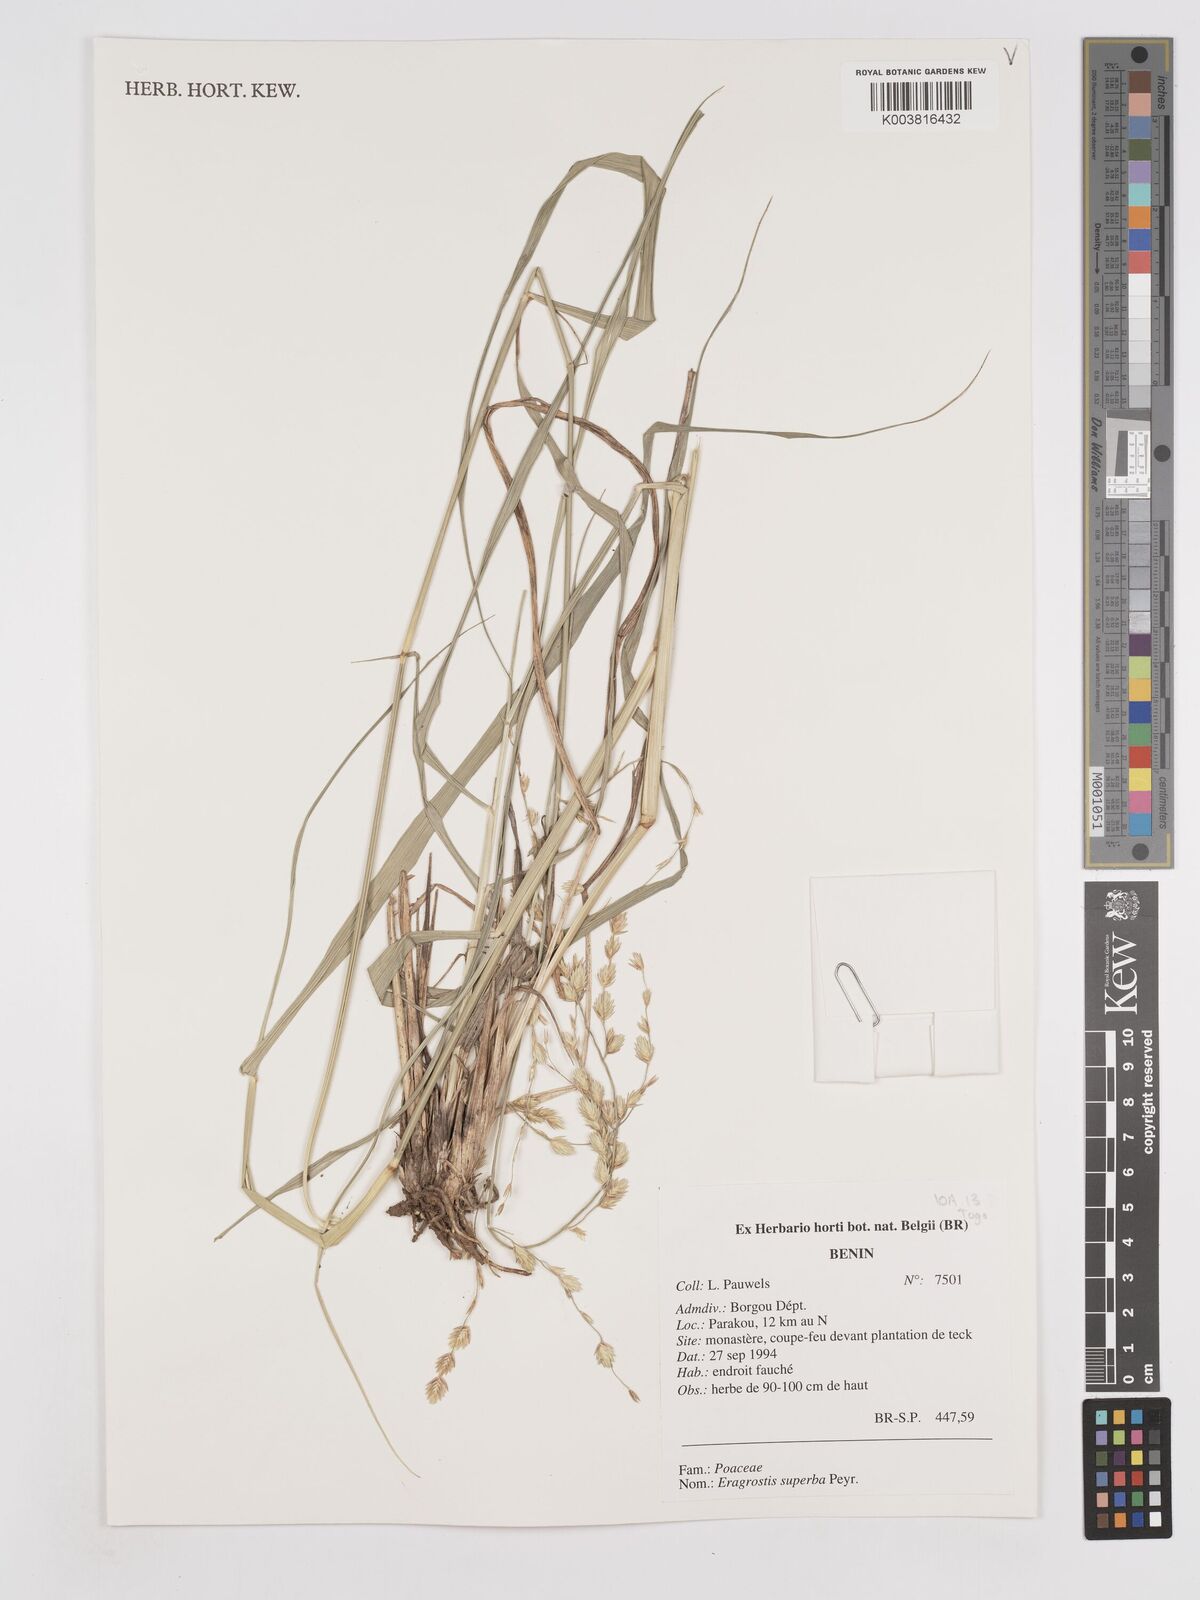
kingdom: Plantae
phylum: Tracheophyta
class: Liliopsida
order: Poales
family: Poaceae
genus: Eragrostis
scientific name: Eragrostis superba
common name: Wilman lovegrass
